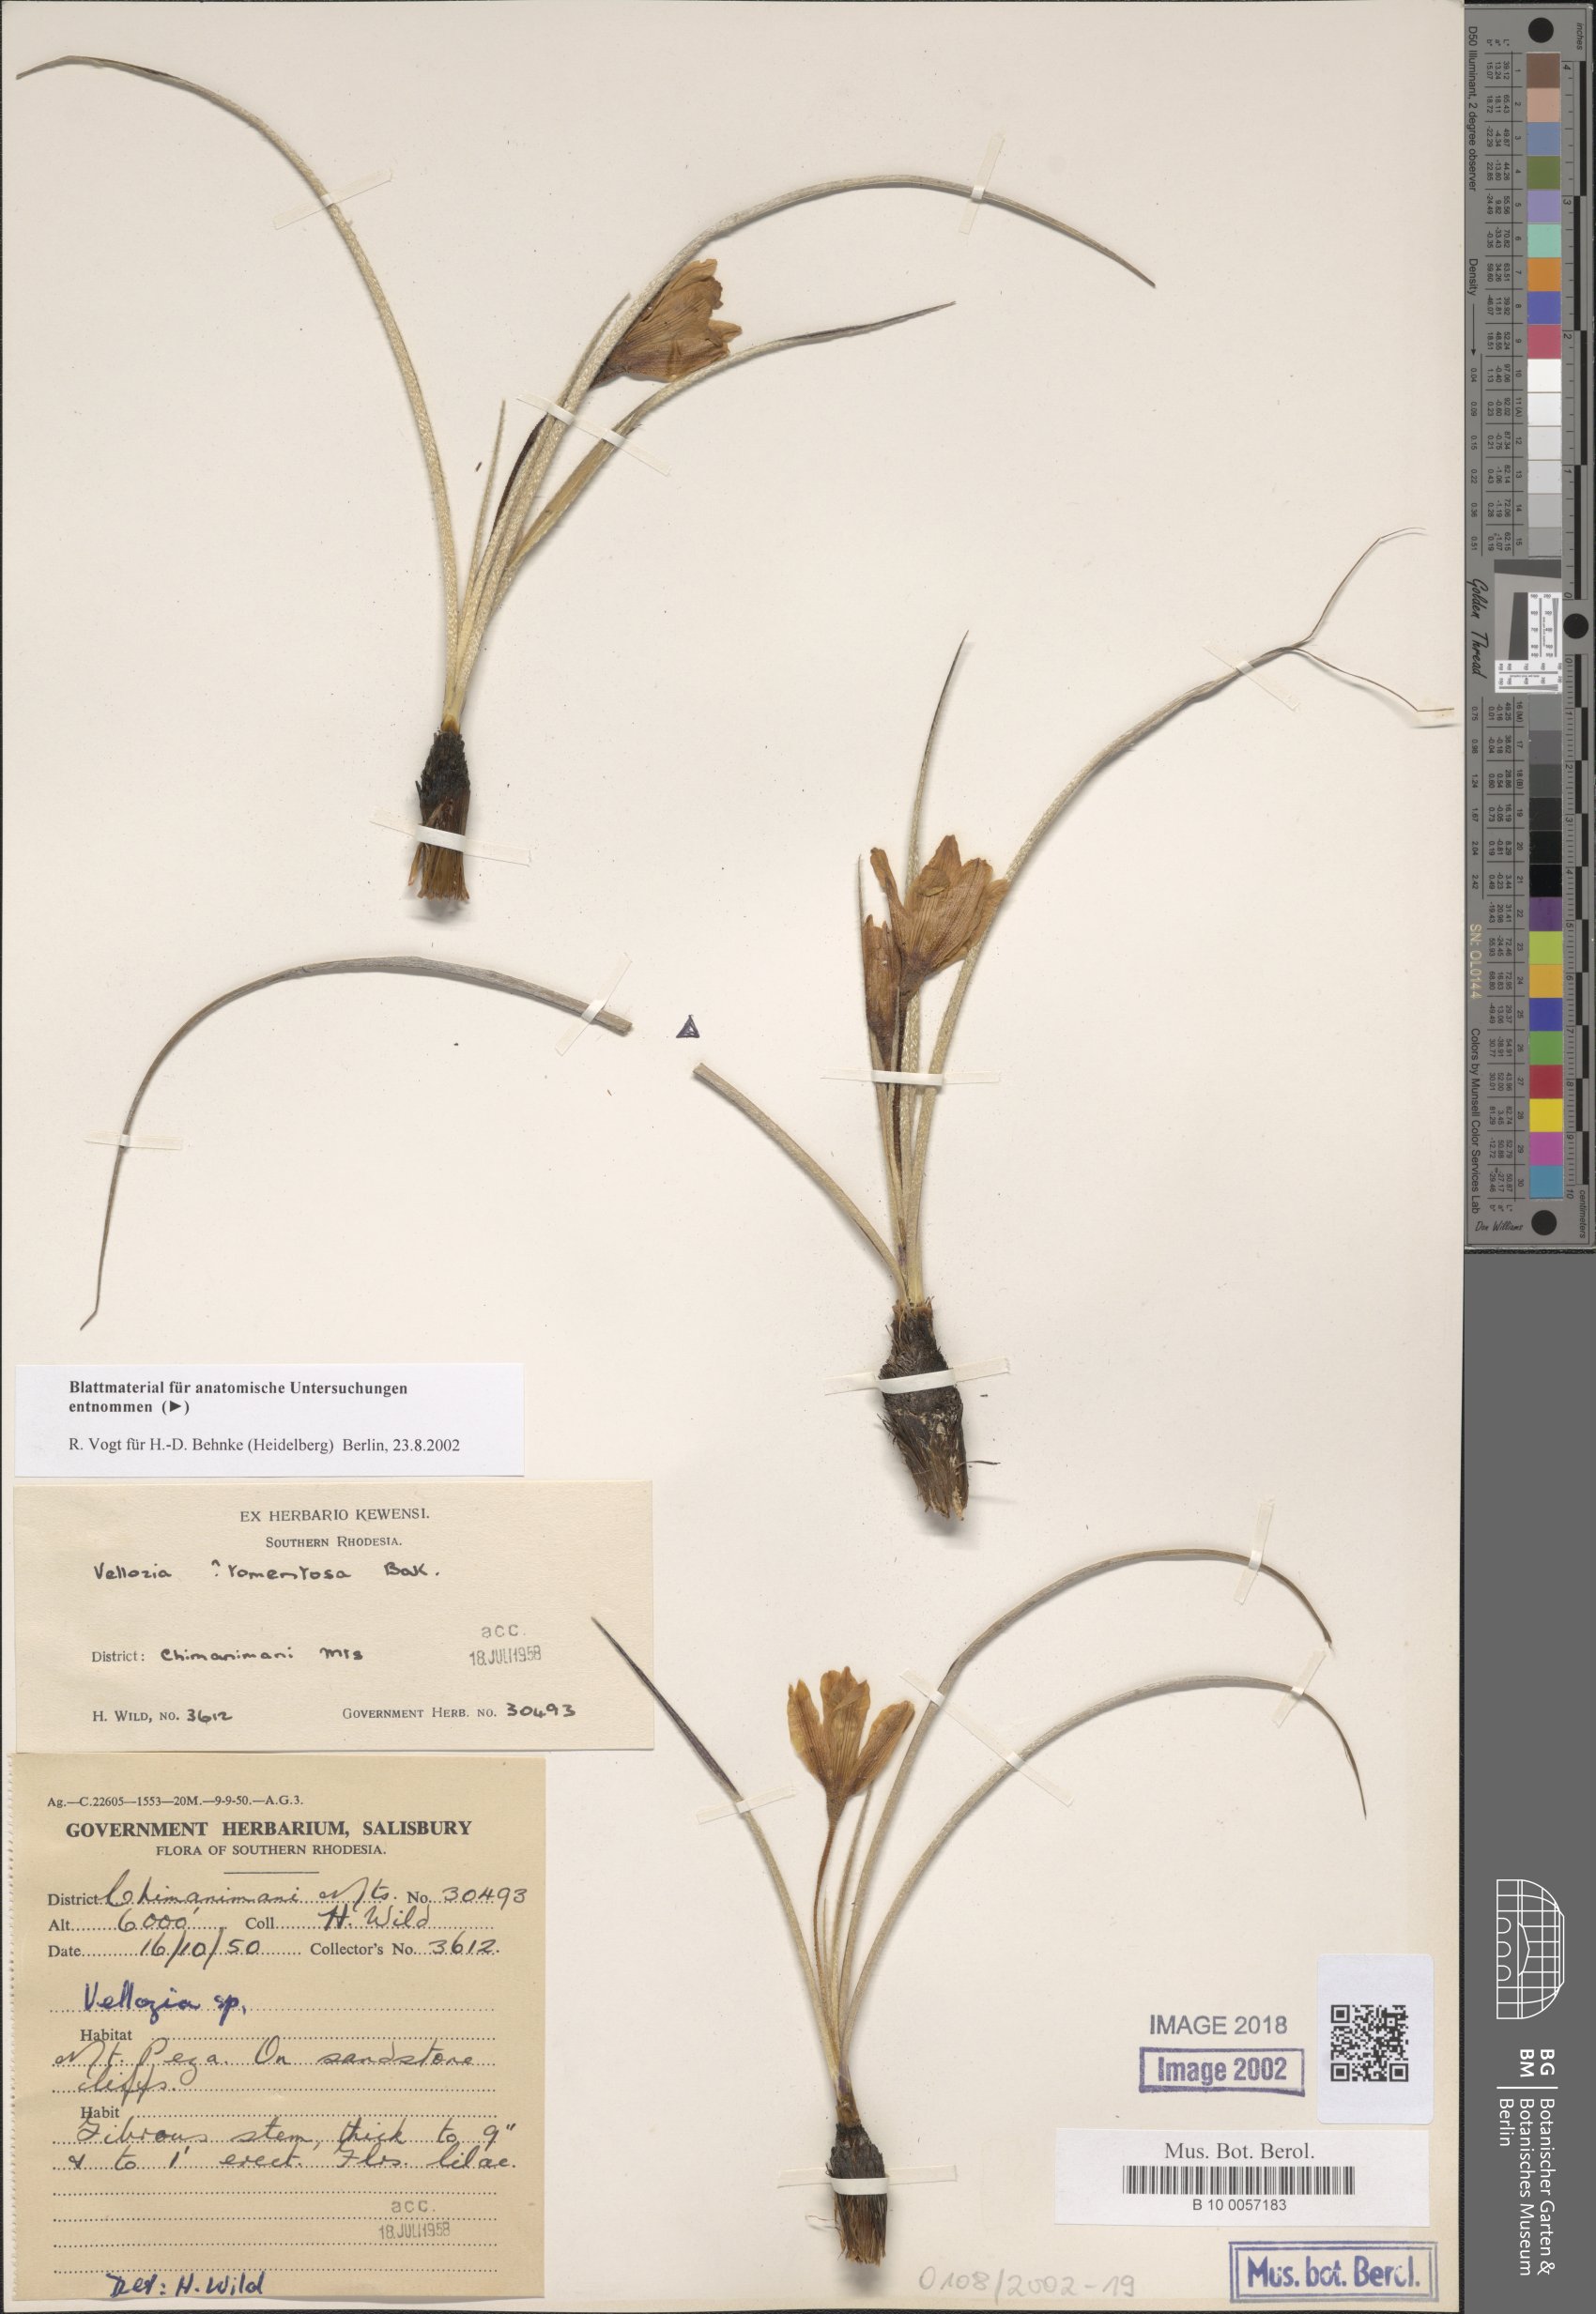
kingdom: Plantae
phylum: Tracheophyta
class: Liliopsida
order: Pandanales
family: Velloziaceae
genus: Vellozia
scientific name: Vellozia
